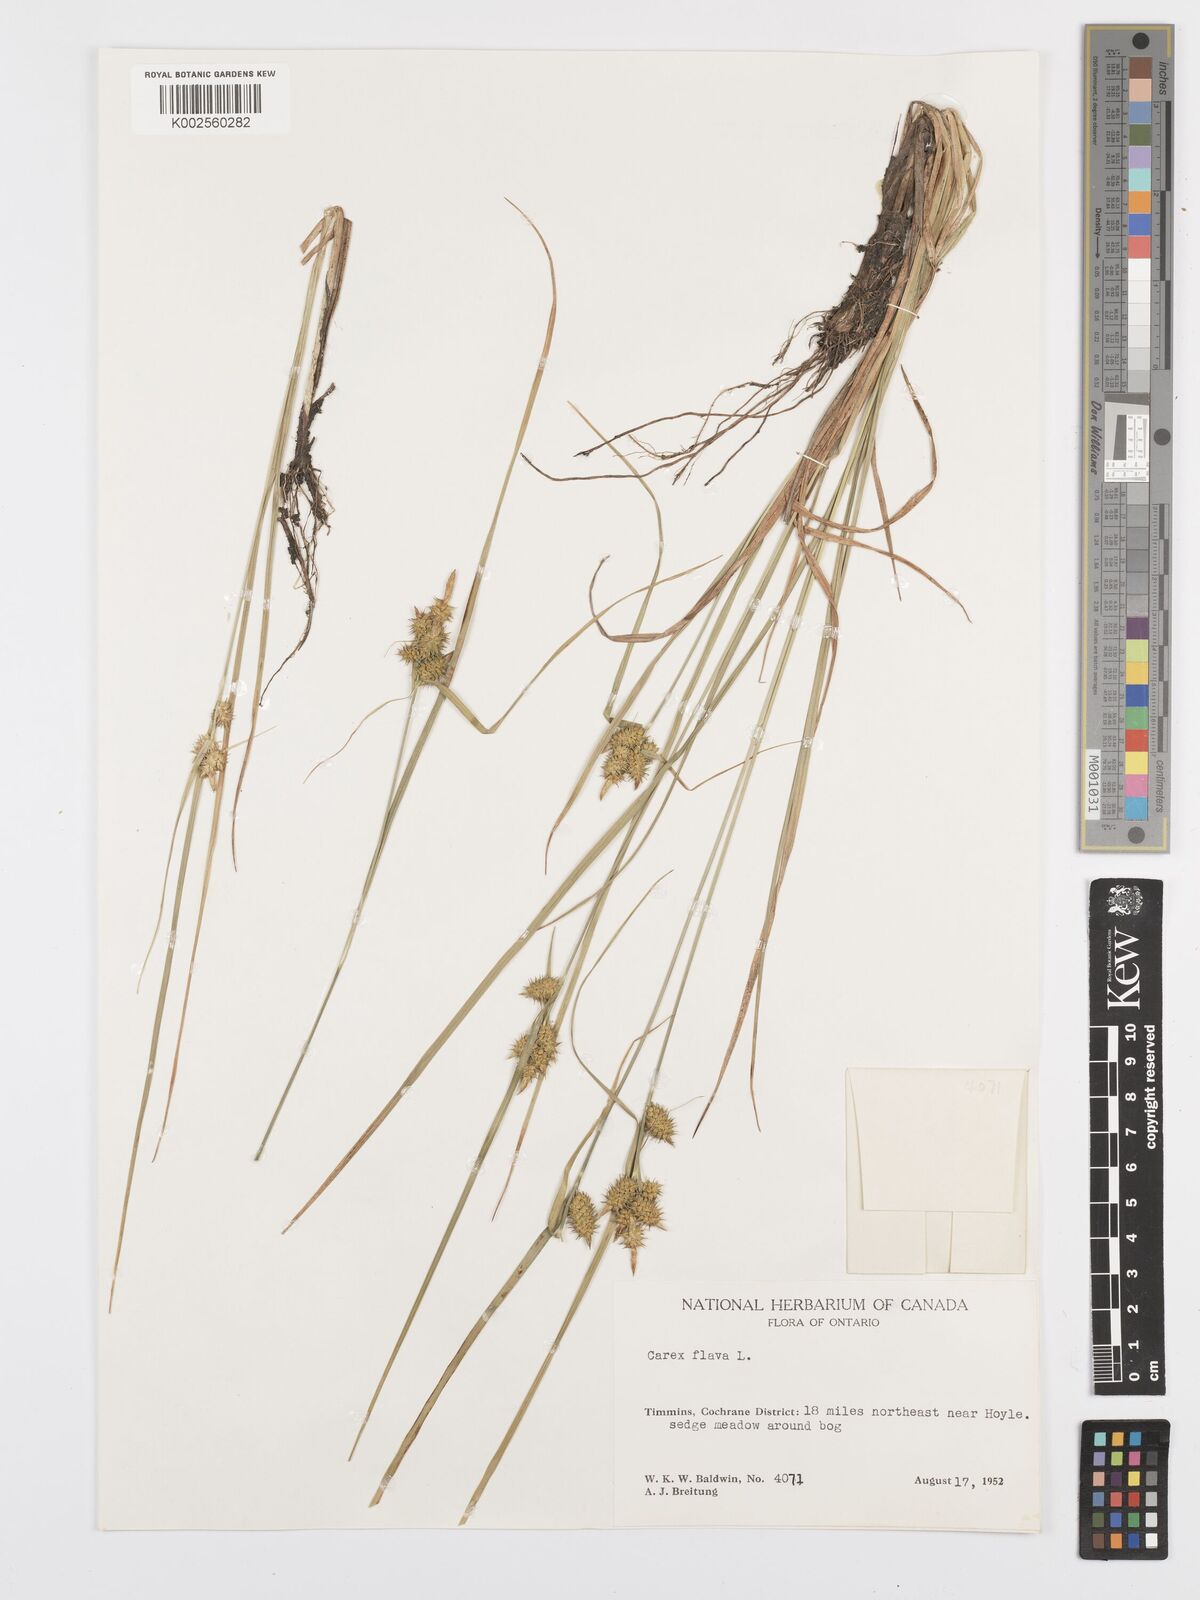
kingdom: Plantae
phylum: Tracheophyta
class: Liliopsida
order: Poales
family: Cyperaceae
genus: Carex
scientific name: Carex flava
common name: Large yellow-sedge
